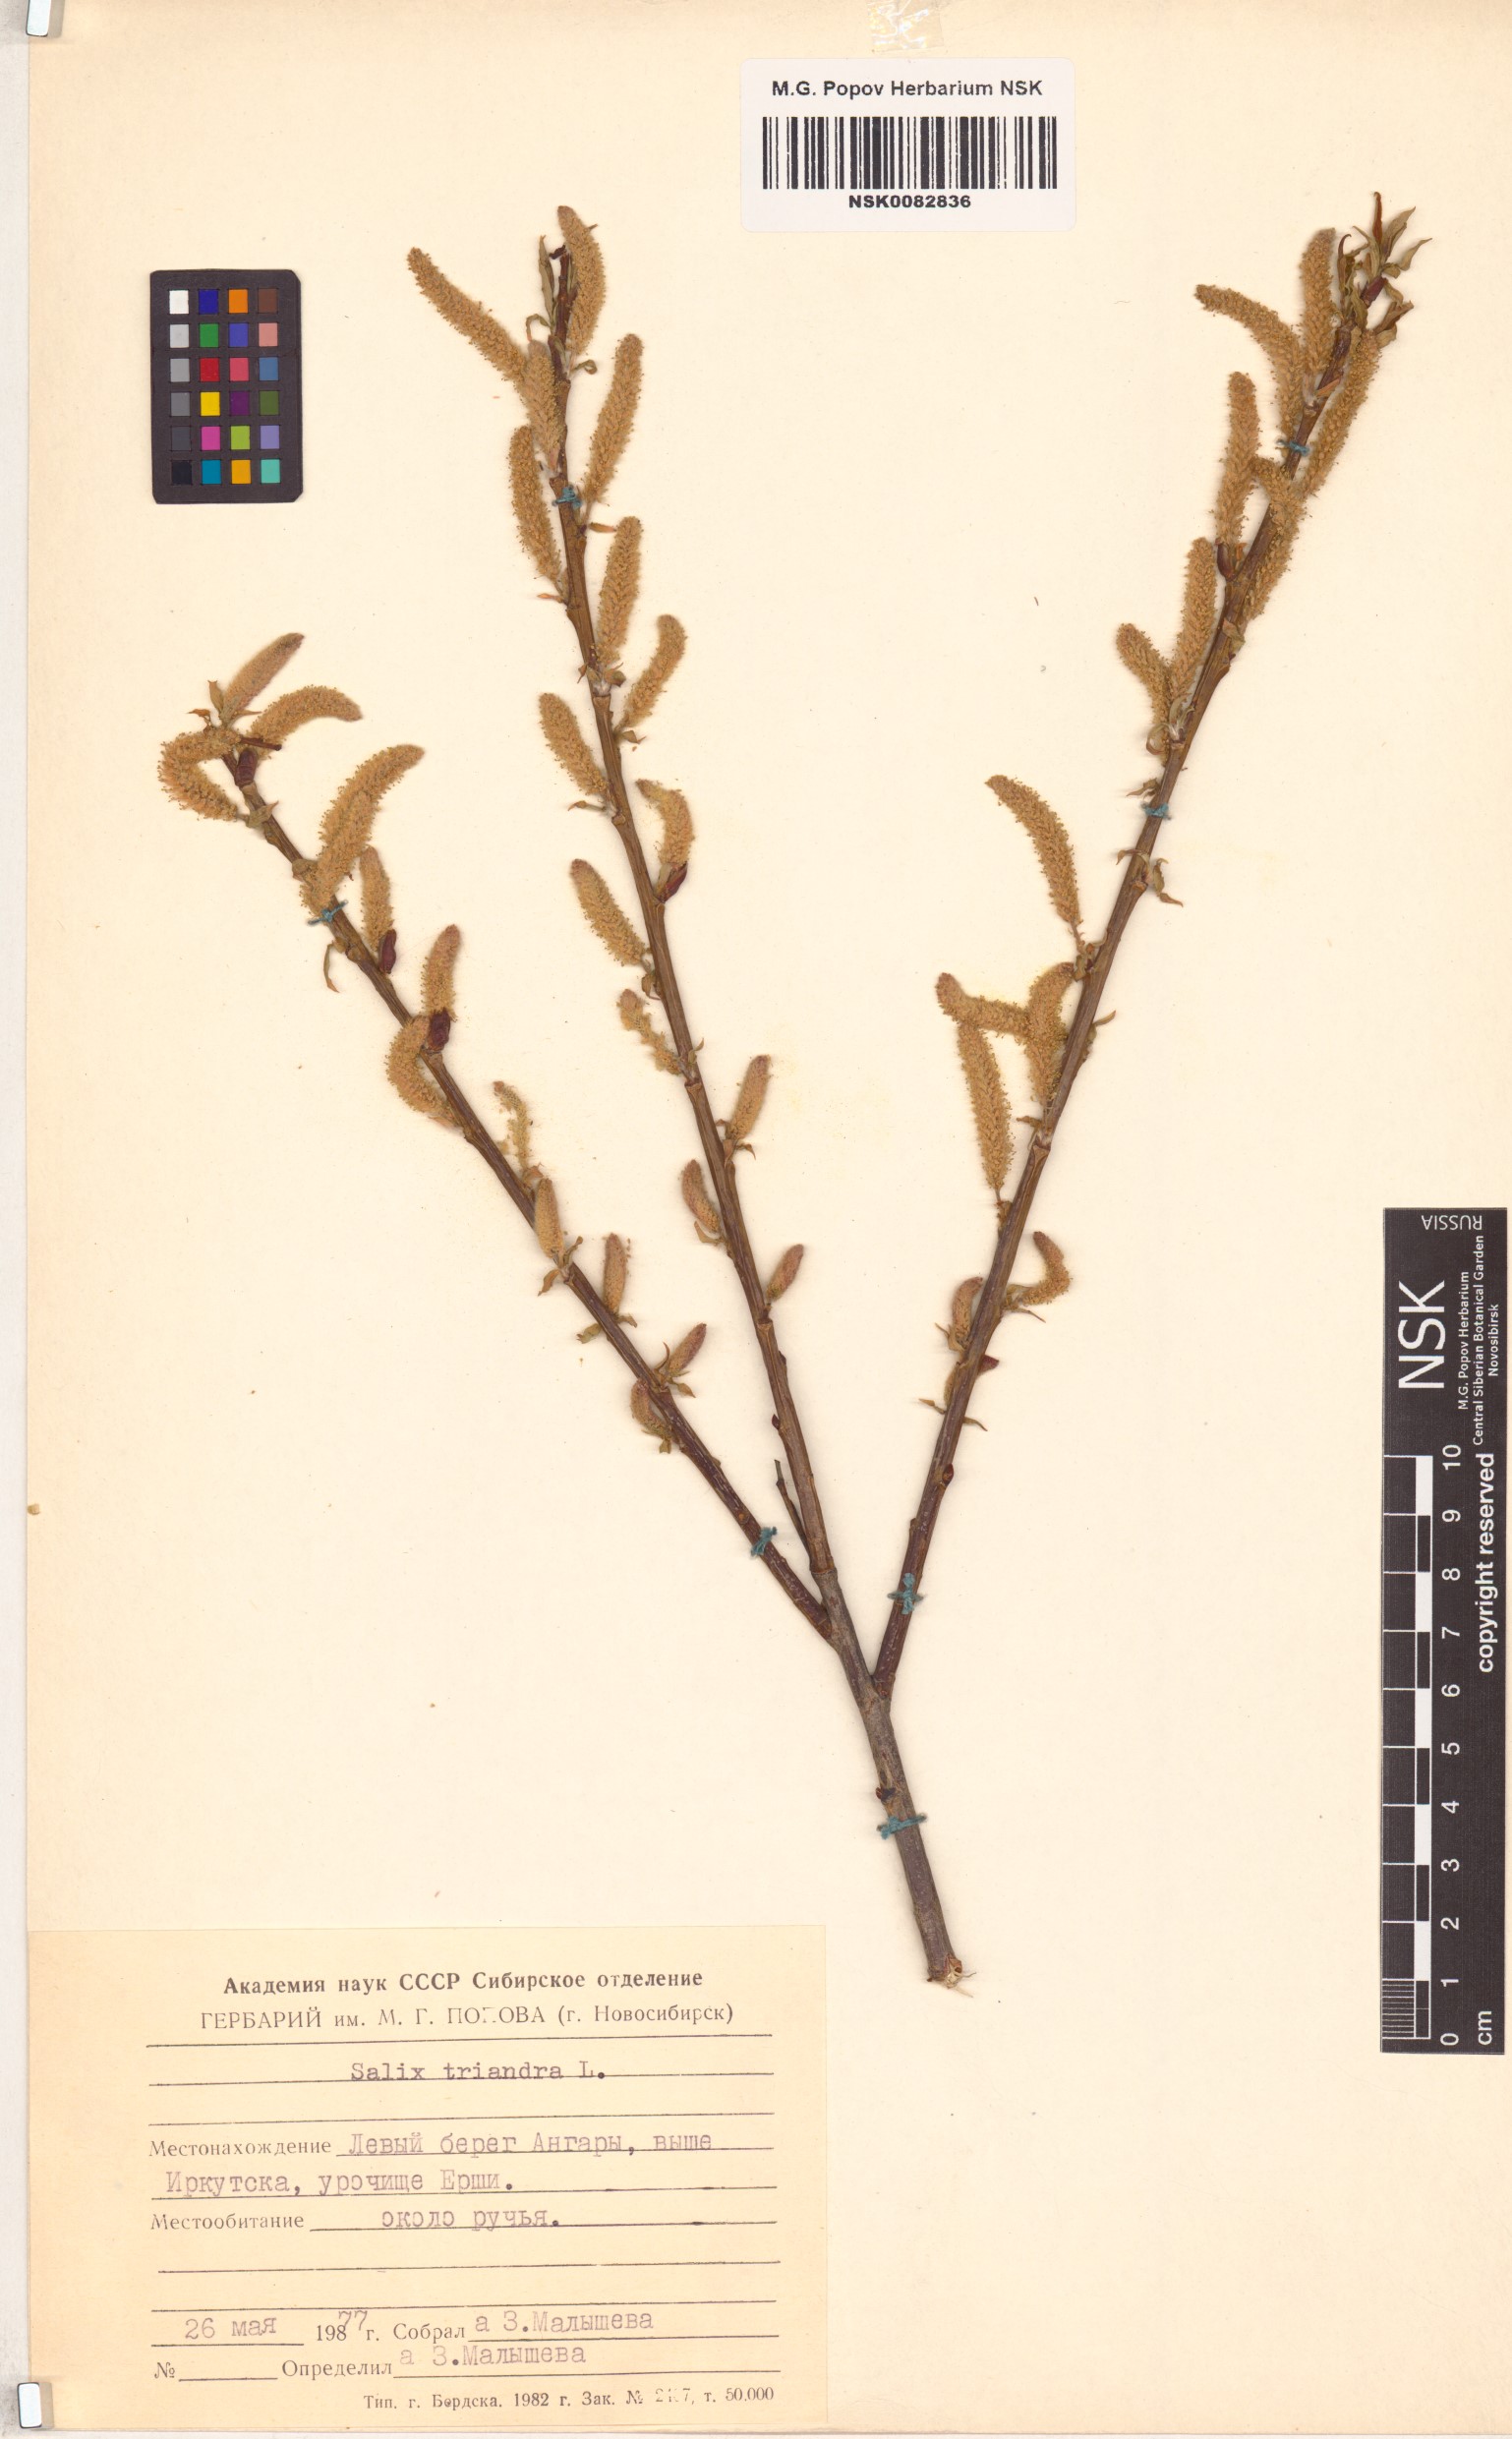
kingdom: Plantae
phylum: Tracheophyta
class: Magnoliopsida
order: Malpighiales
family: Salicaceae
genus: Salix
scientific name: Salix triandra
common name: Almond willow
